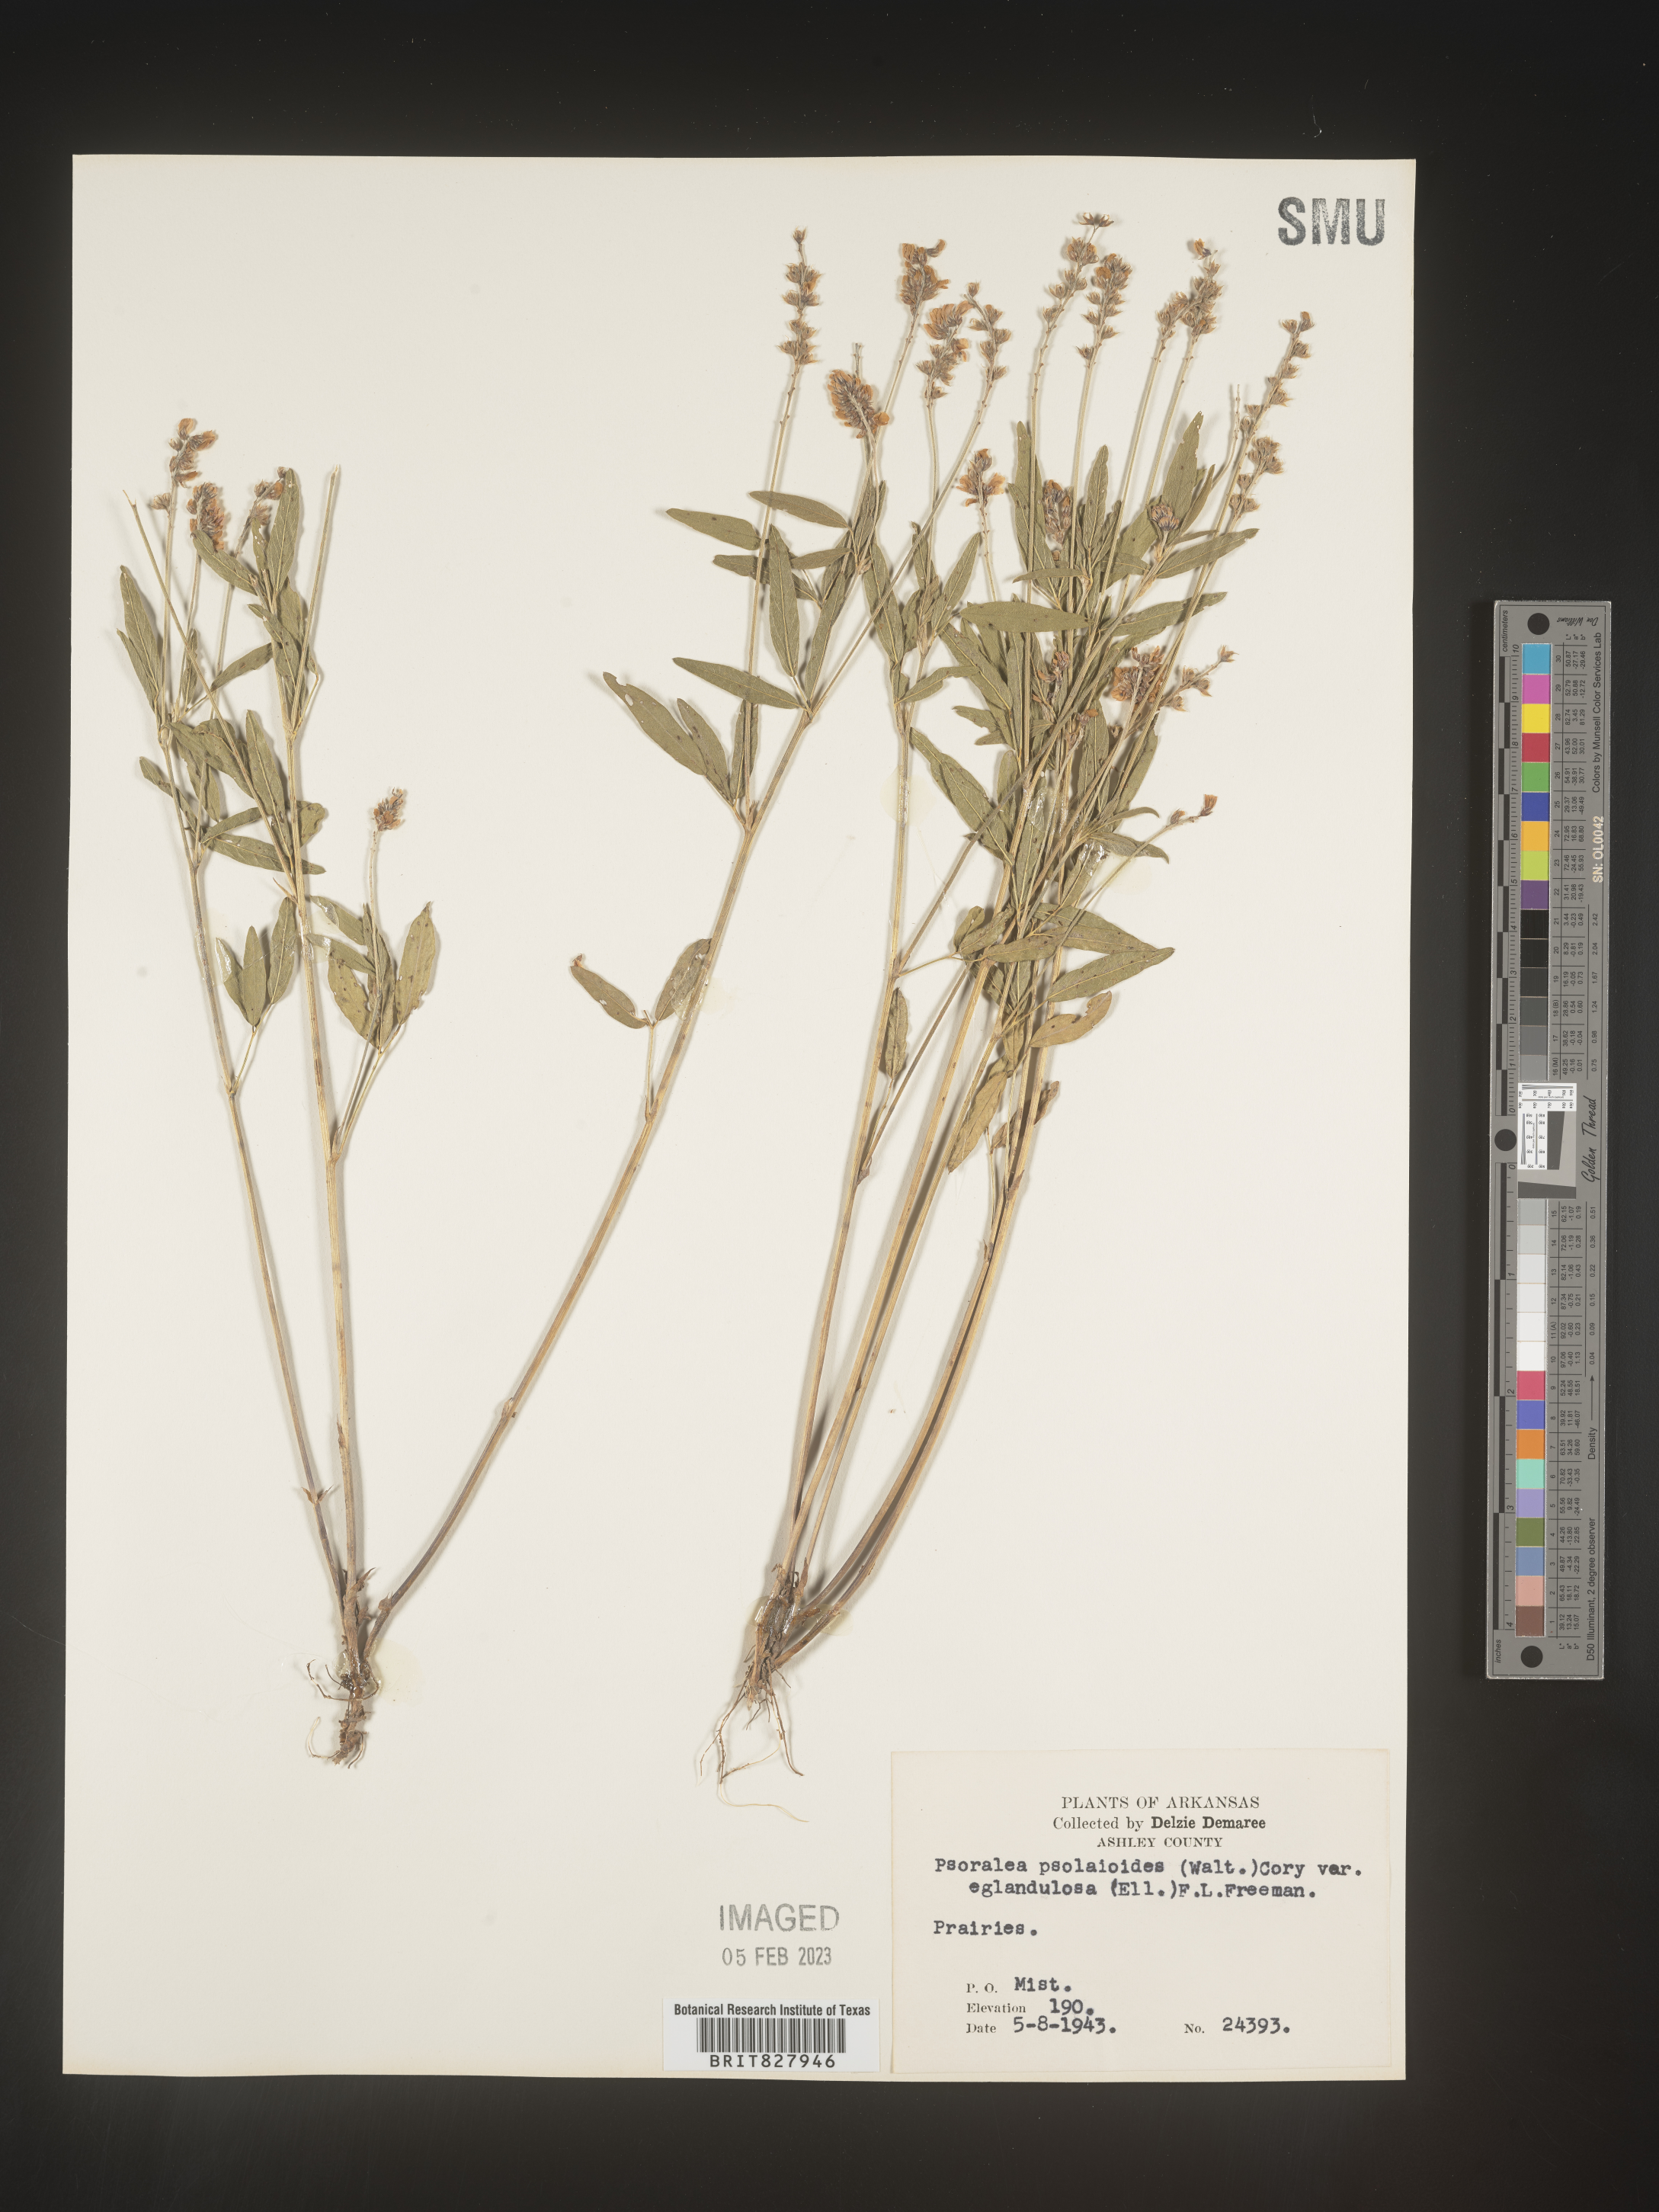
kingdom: Plantae
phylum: Tracheophyta
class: Magnoliopsida
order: Fabales
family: Fabaceae
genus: Orbexilum
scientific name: Orbexilum pedunculatum
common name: Sampson's snakeroot
